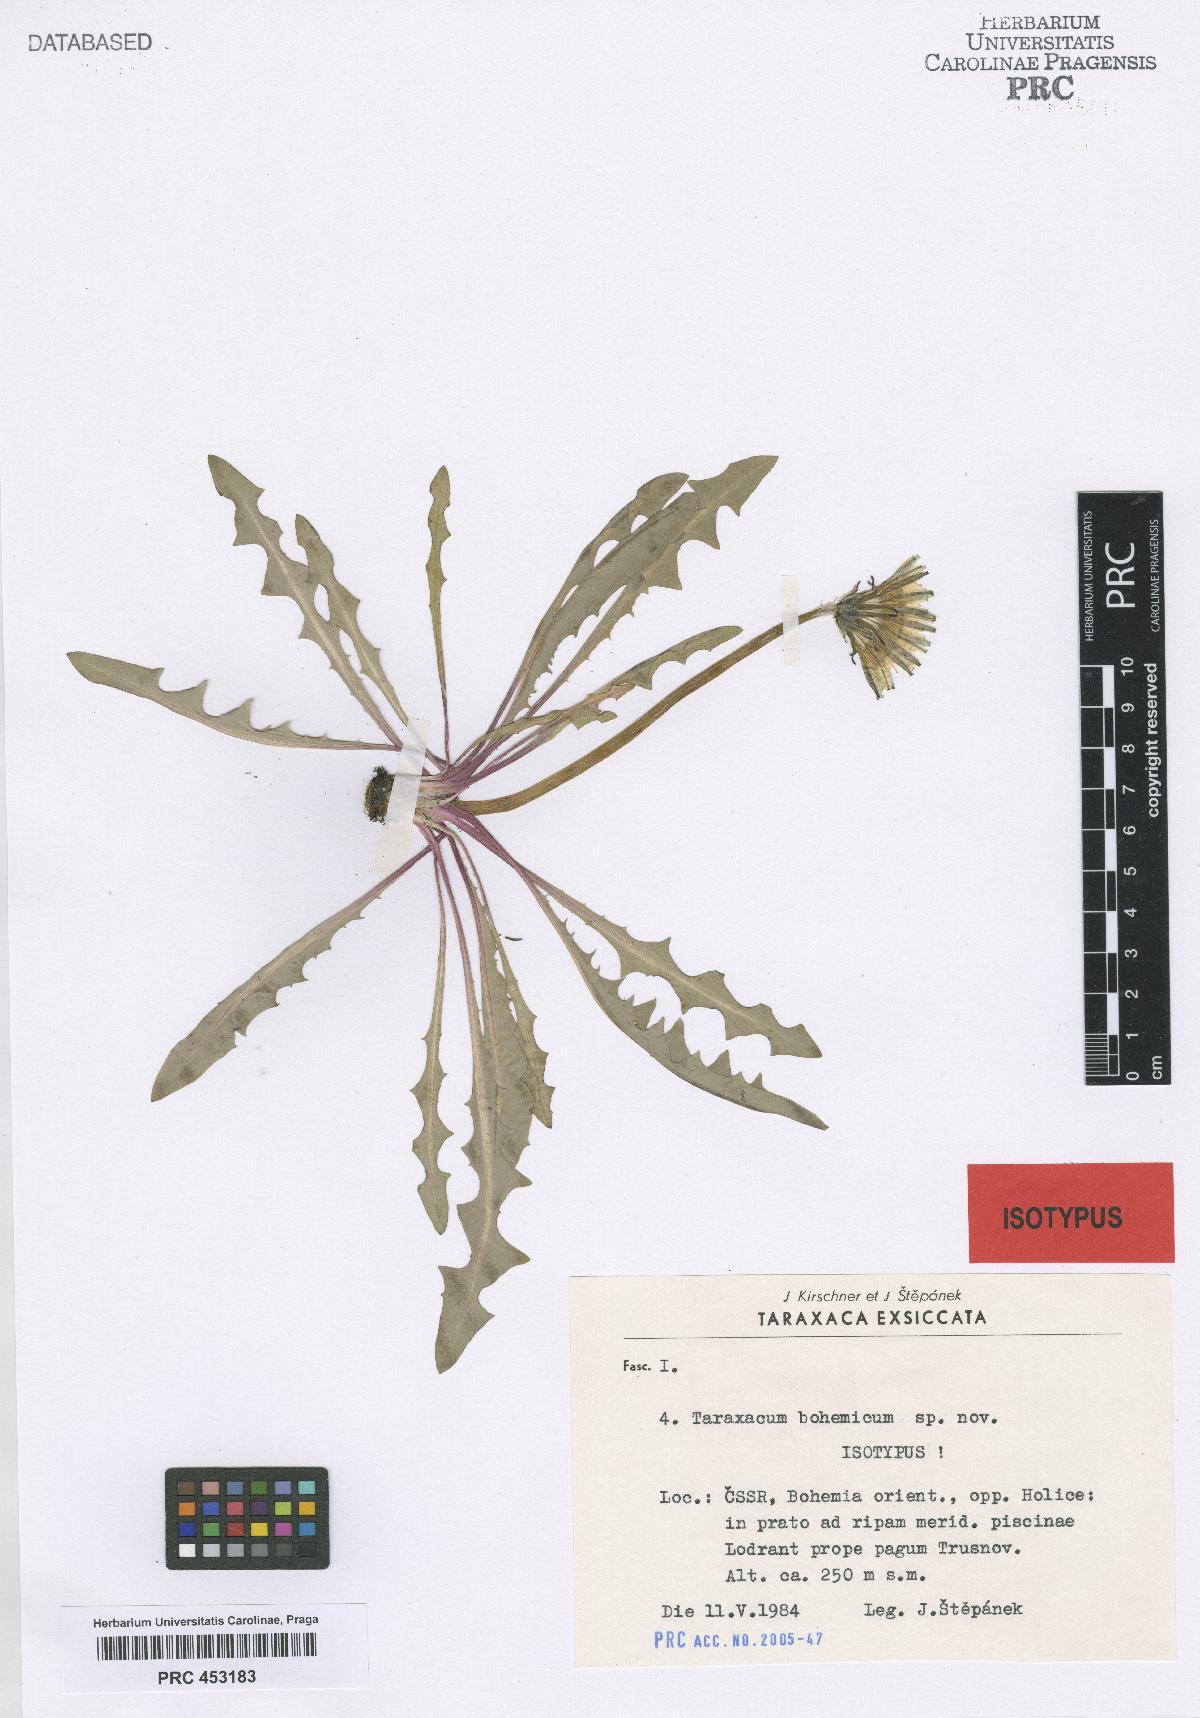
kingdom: Plantae
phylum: Tracheophyta
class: Magnoliopsida
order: Asterales
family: Asteraceae
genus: Taraxacum
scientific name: Taraxacum bohemicum
